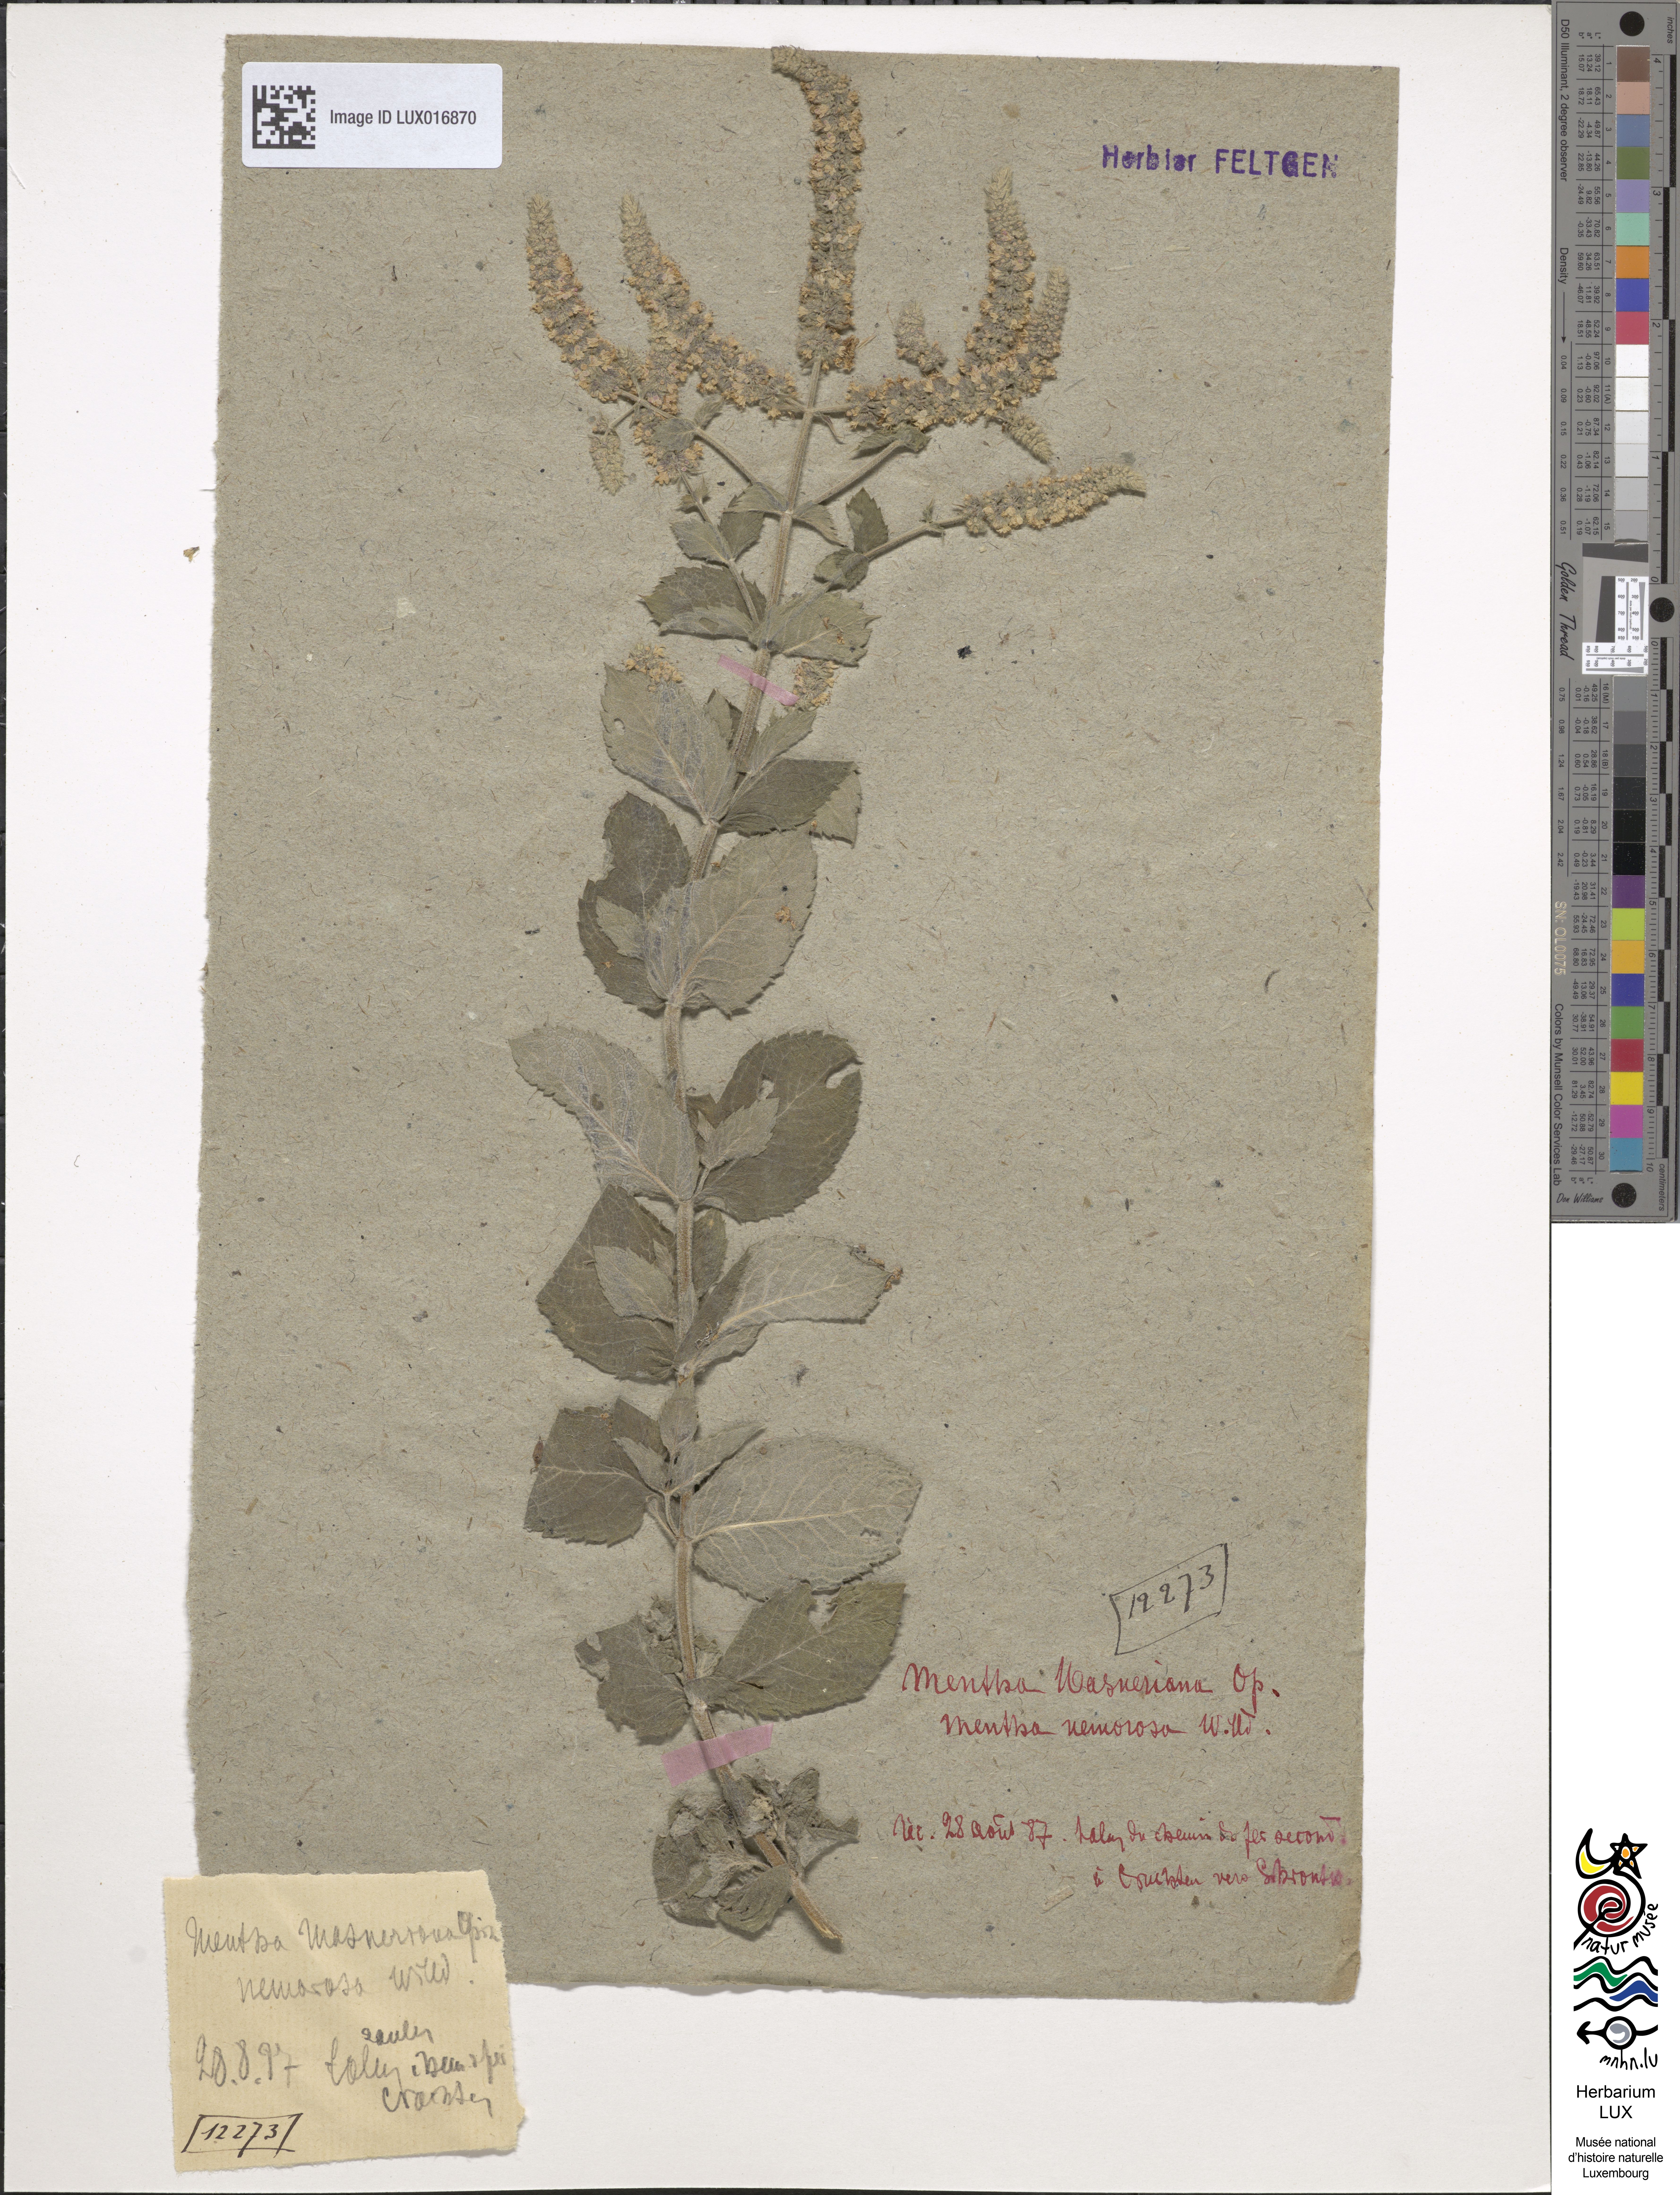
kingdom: Plantae
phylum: Tracheophyta
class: Magnoliopsida
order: Lamiales
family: Lamiaceae
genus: Mentha
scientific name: Mentha rotundifolia
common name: Bigleaf mint
